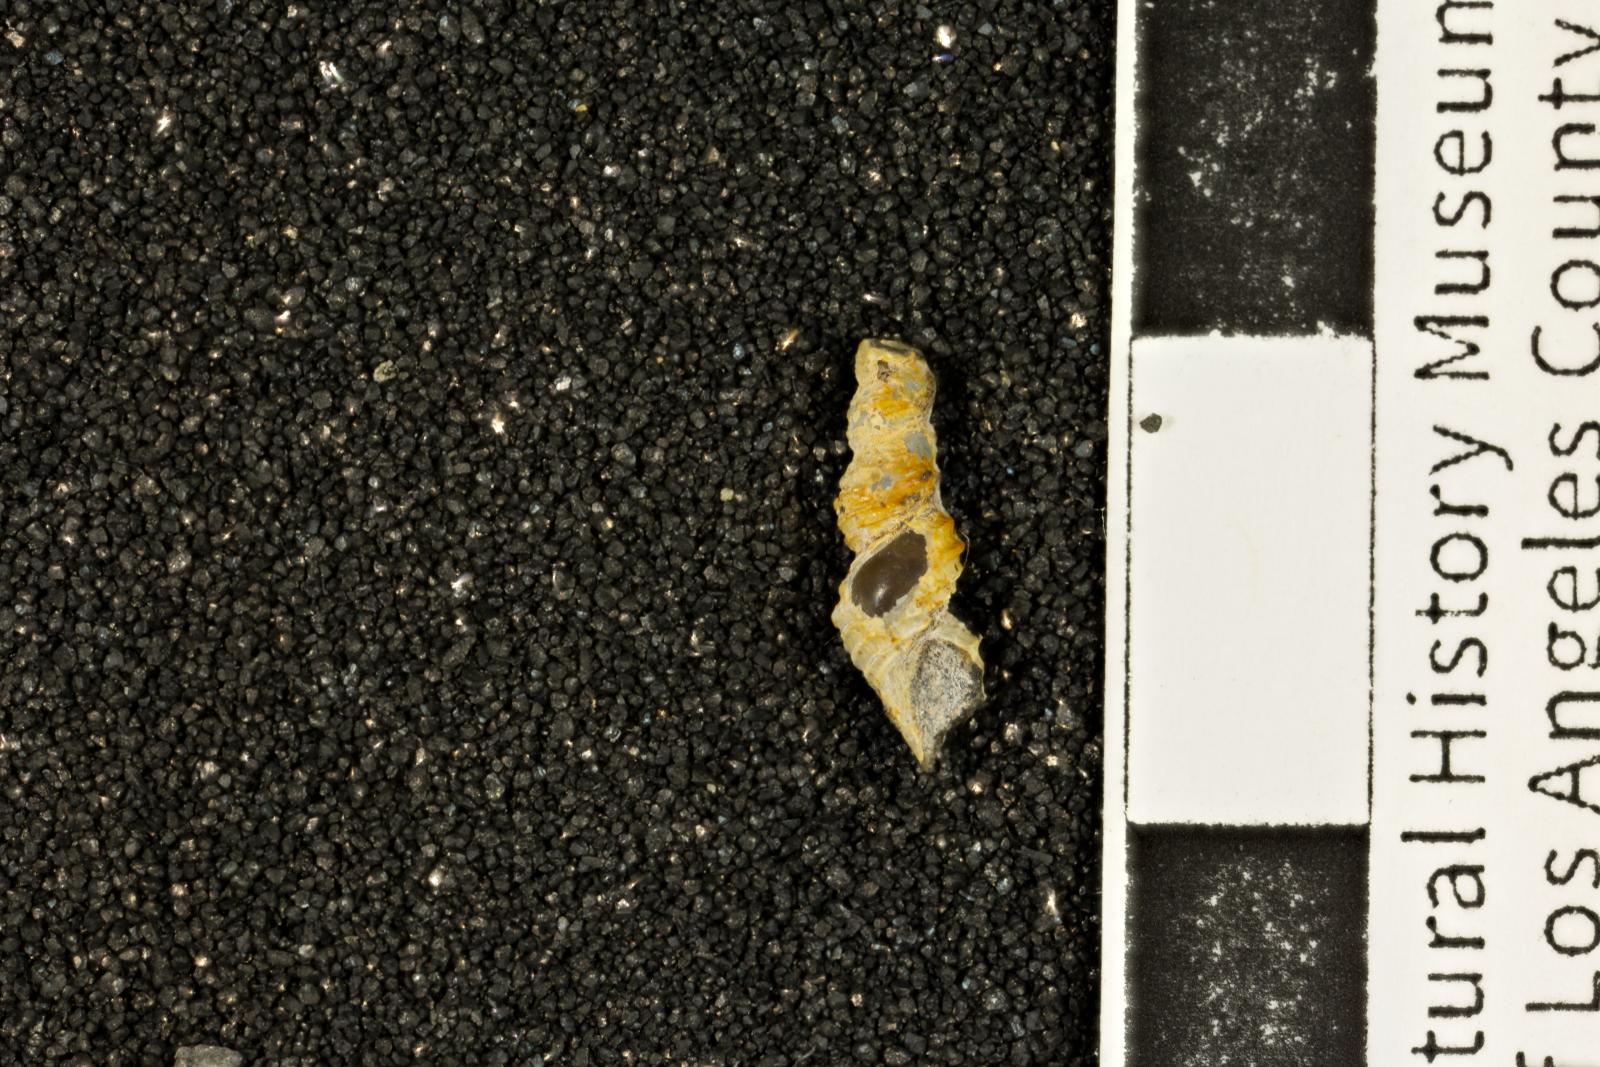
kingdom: Animalia
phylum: Mollusca
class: Gastropoda
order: Littorinimorpha
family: Capulidae
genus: Minytropis
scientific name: Minytropis melilota
